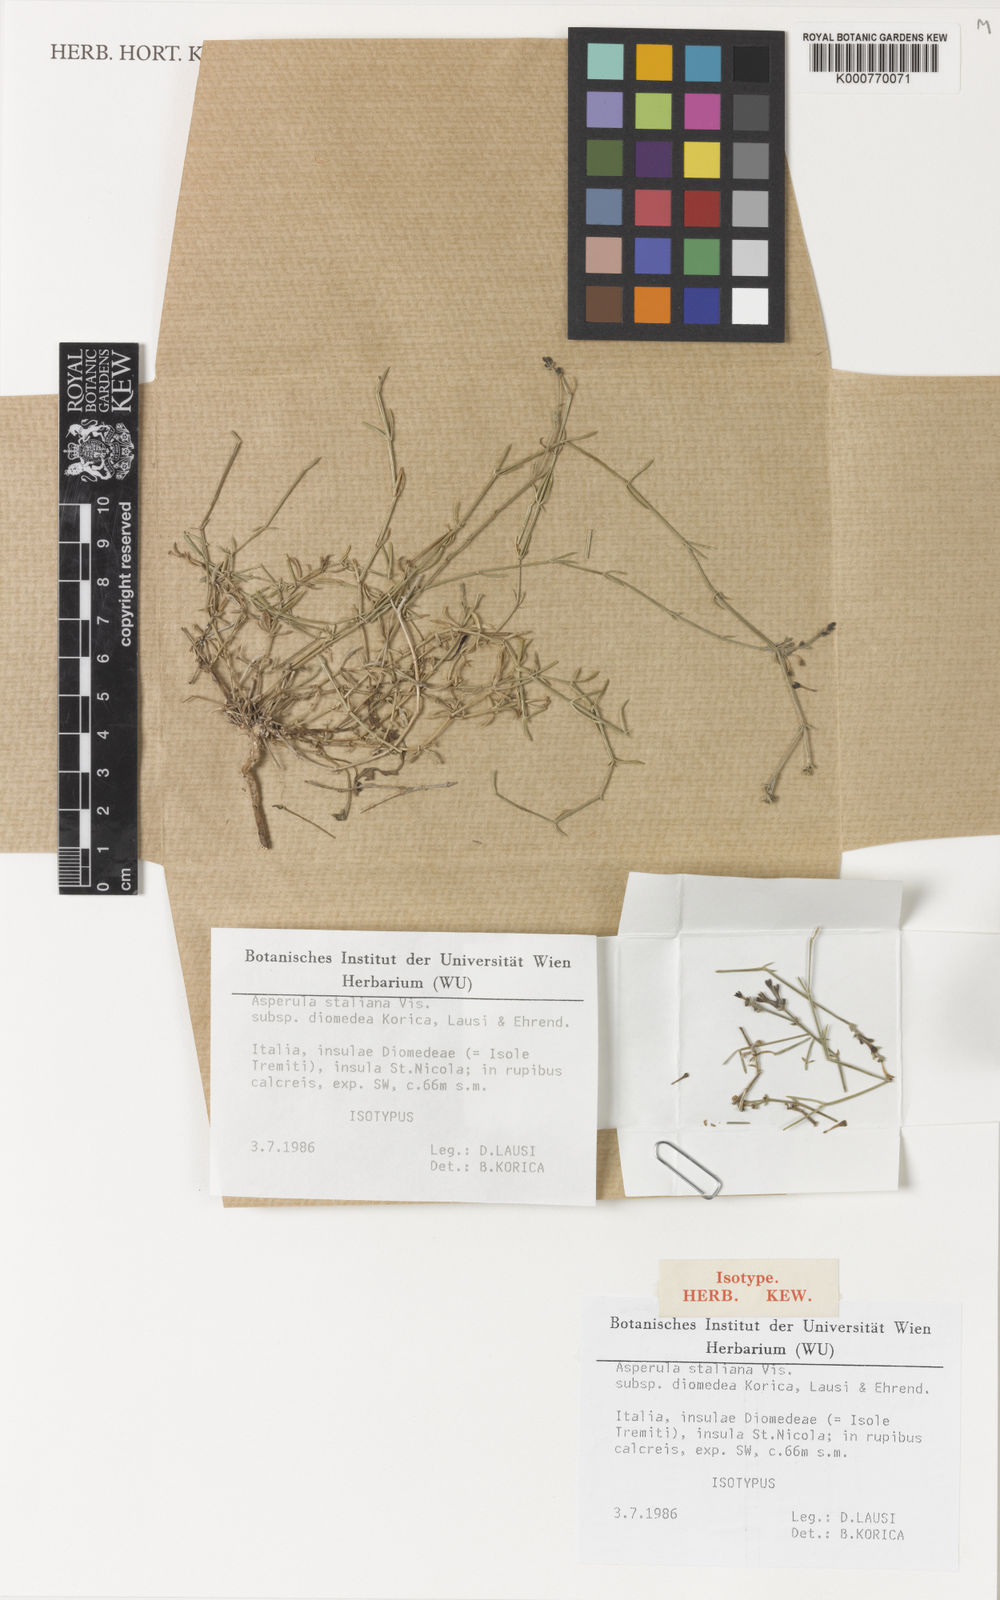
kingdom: Plantae
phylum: Tracheophyta
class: Magnoliopsida
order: Gentianales
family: Rubiaceae
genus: Cynanchica
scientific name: Cynanchica staliana
